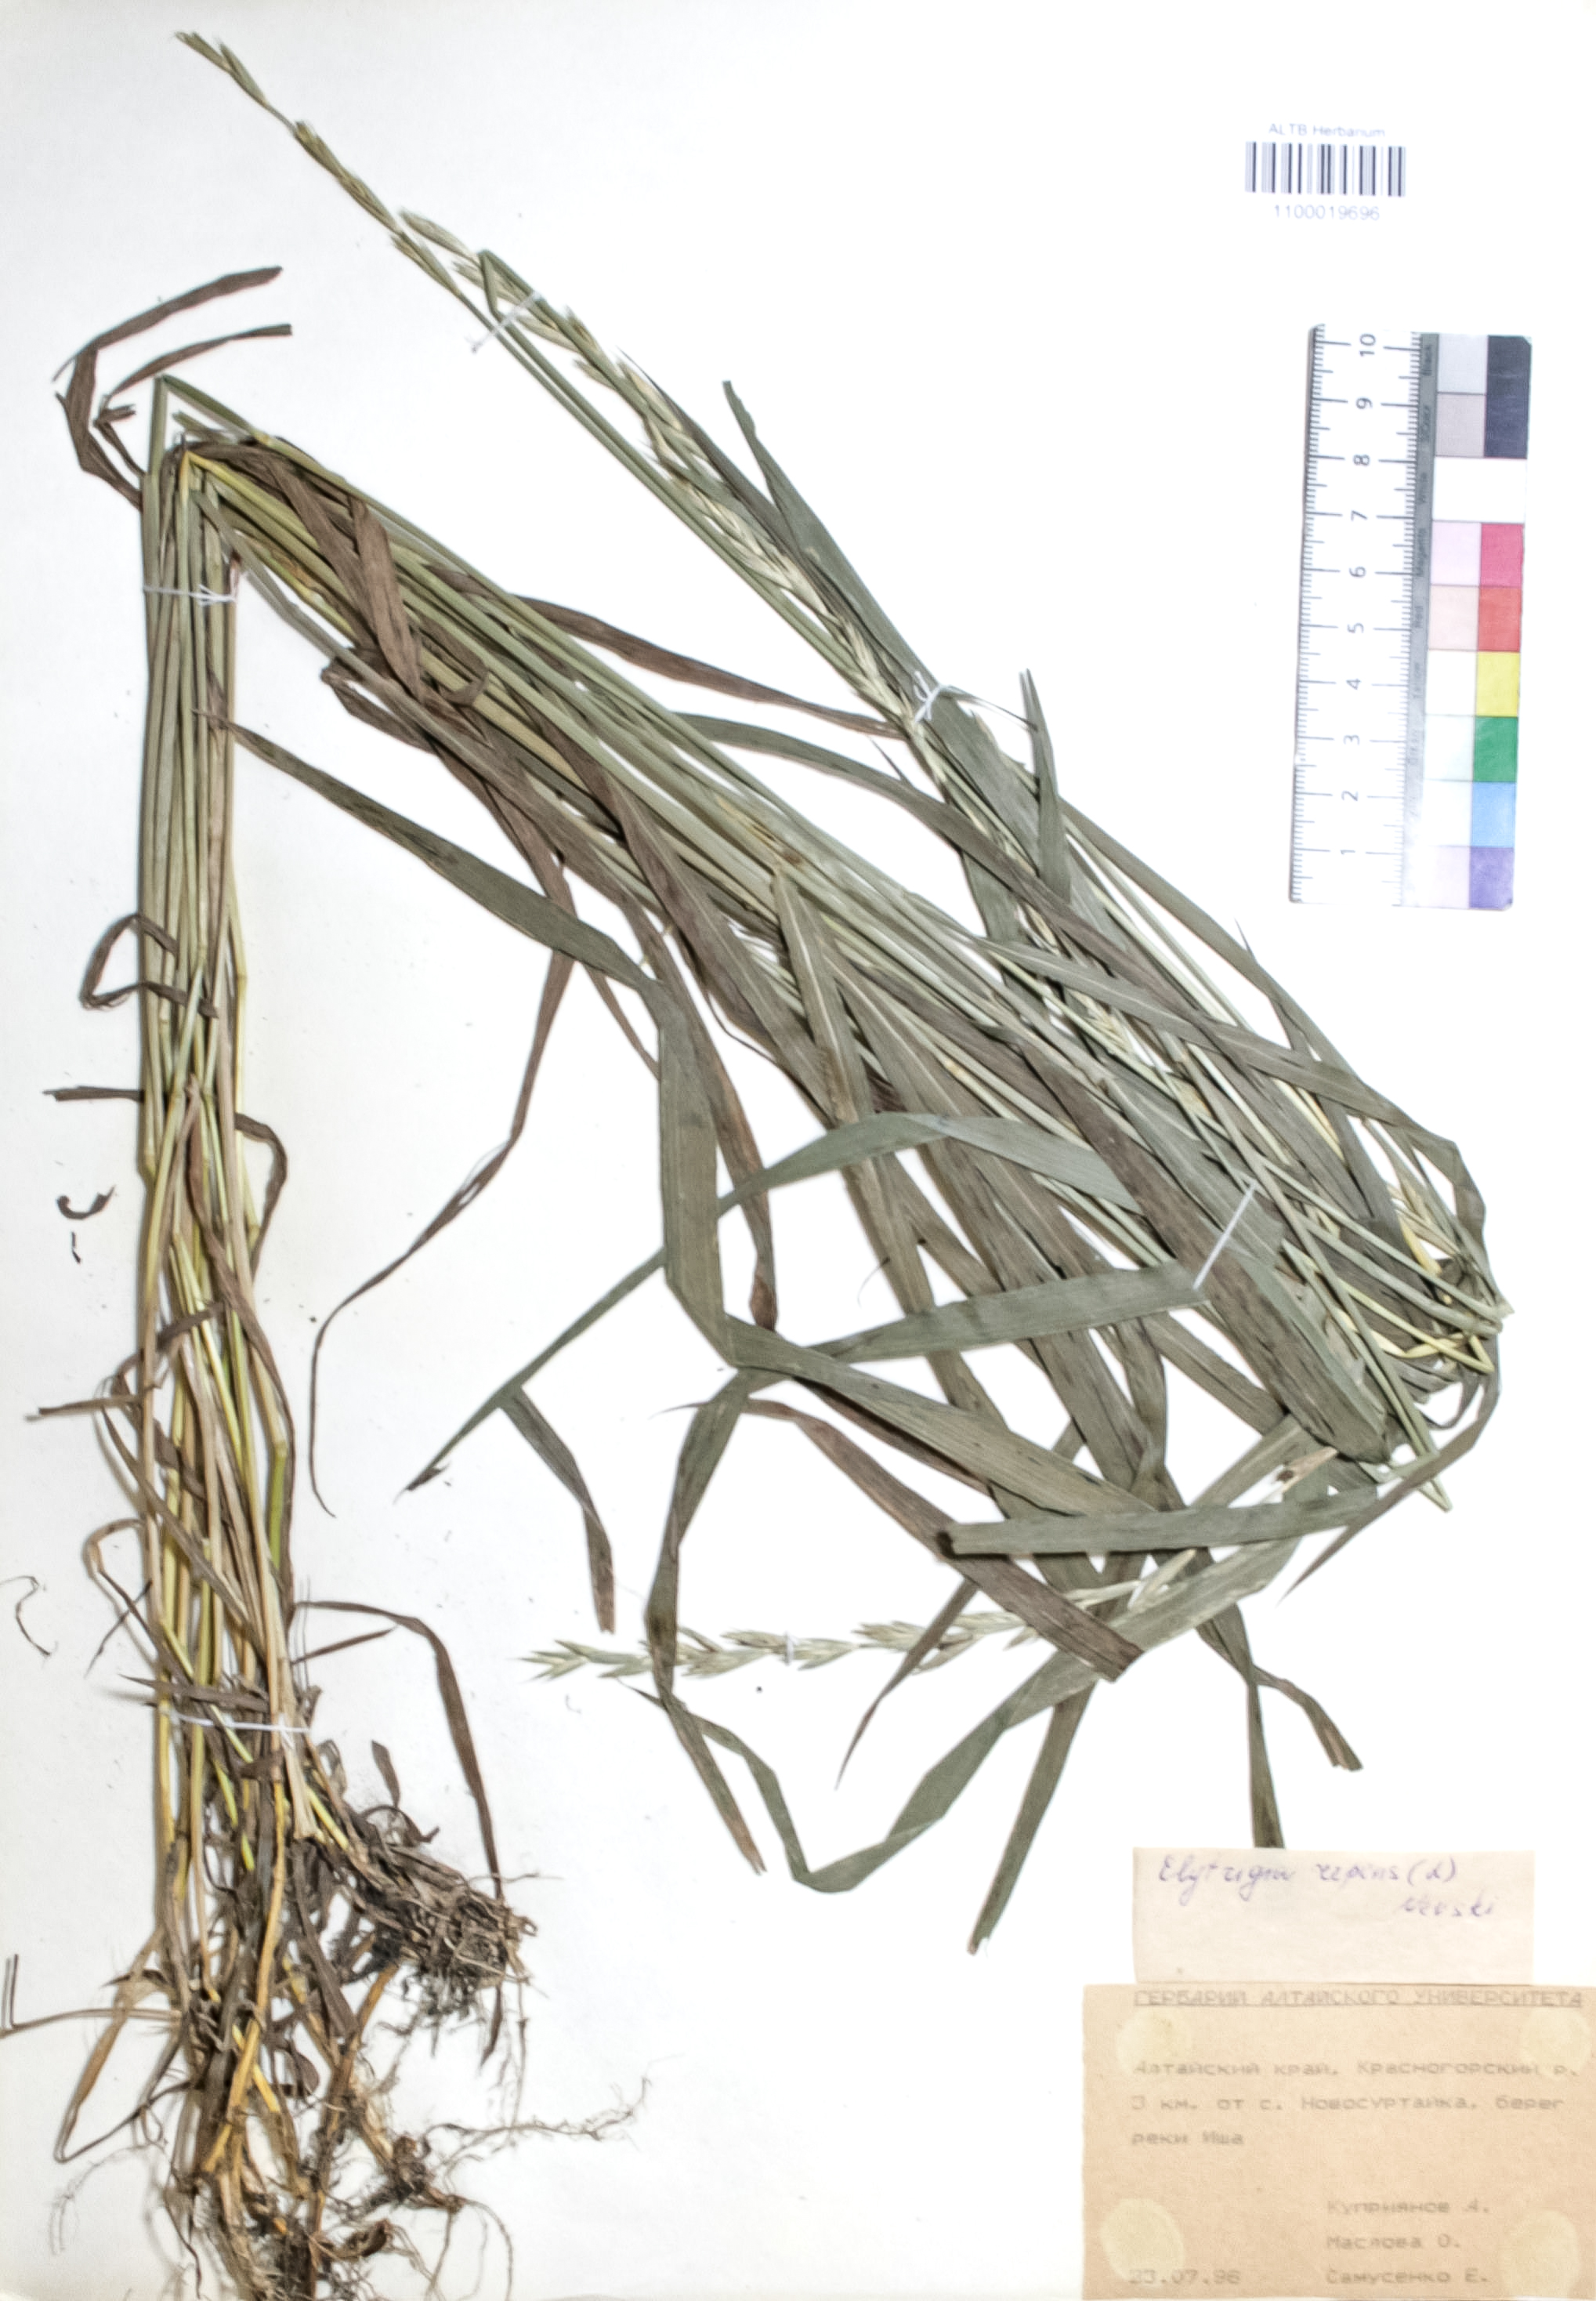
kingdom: Plantae
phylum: Tracheophyta
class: Liliopsida
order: Poales
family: Poaceae
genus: Elymus
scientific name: Elymus repens
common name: Quackgrass
